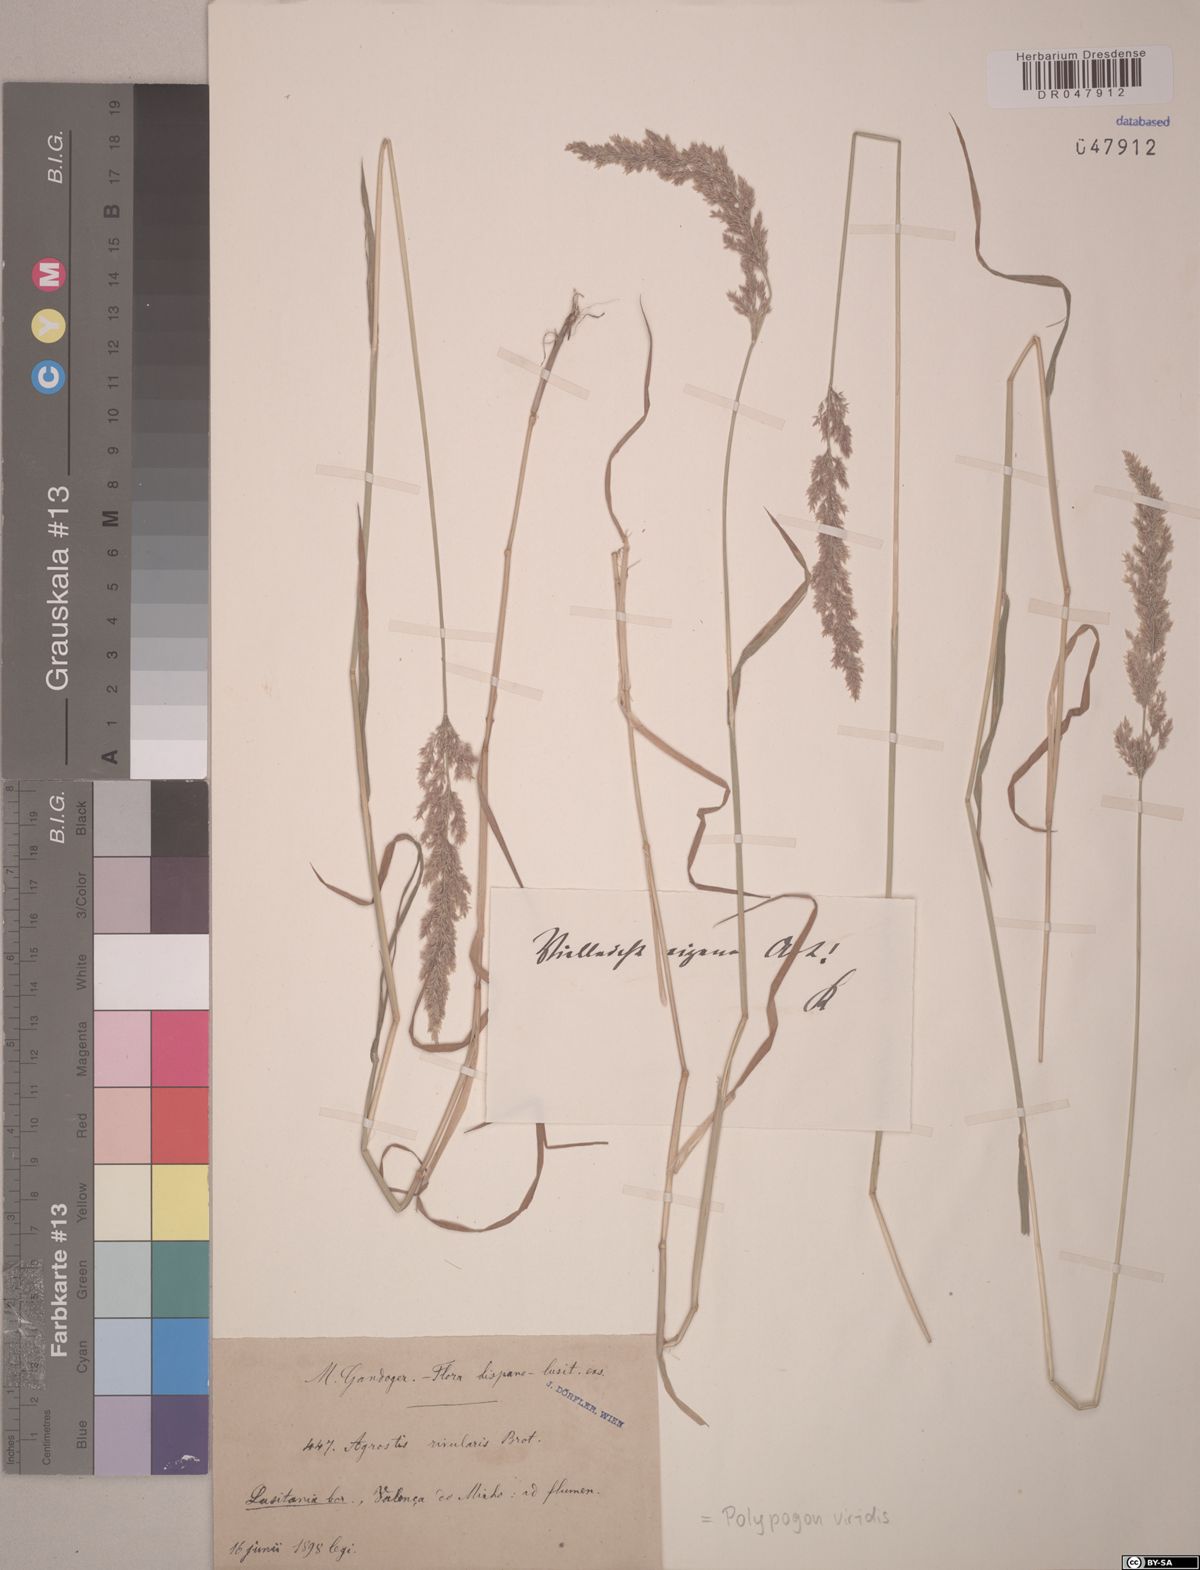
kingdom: Plantae
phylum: Tracheophyta
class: Liliopsida
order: Poales
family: Poaceae
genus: Polypogon
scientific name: Polypogon viridis
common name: Water bent
